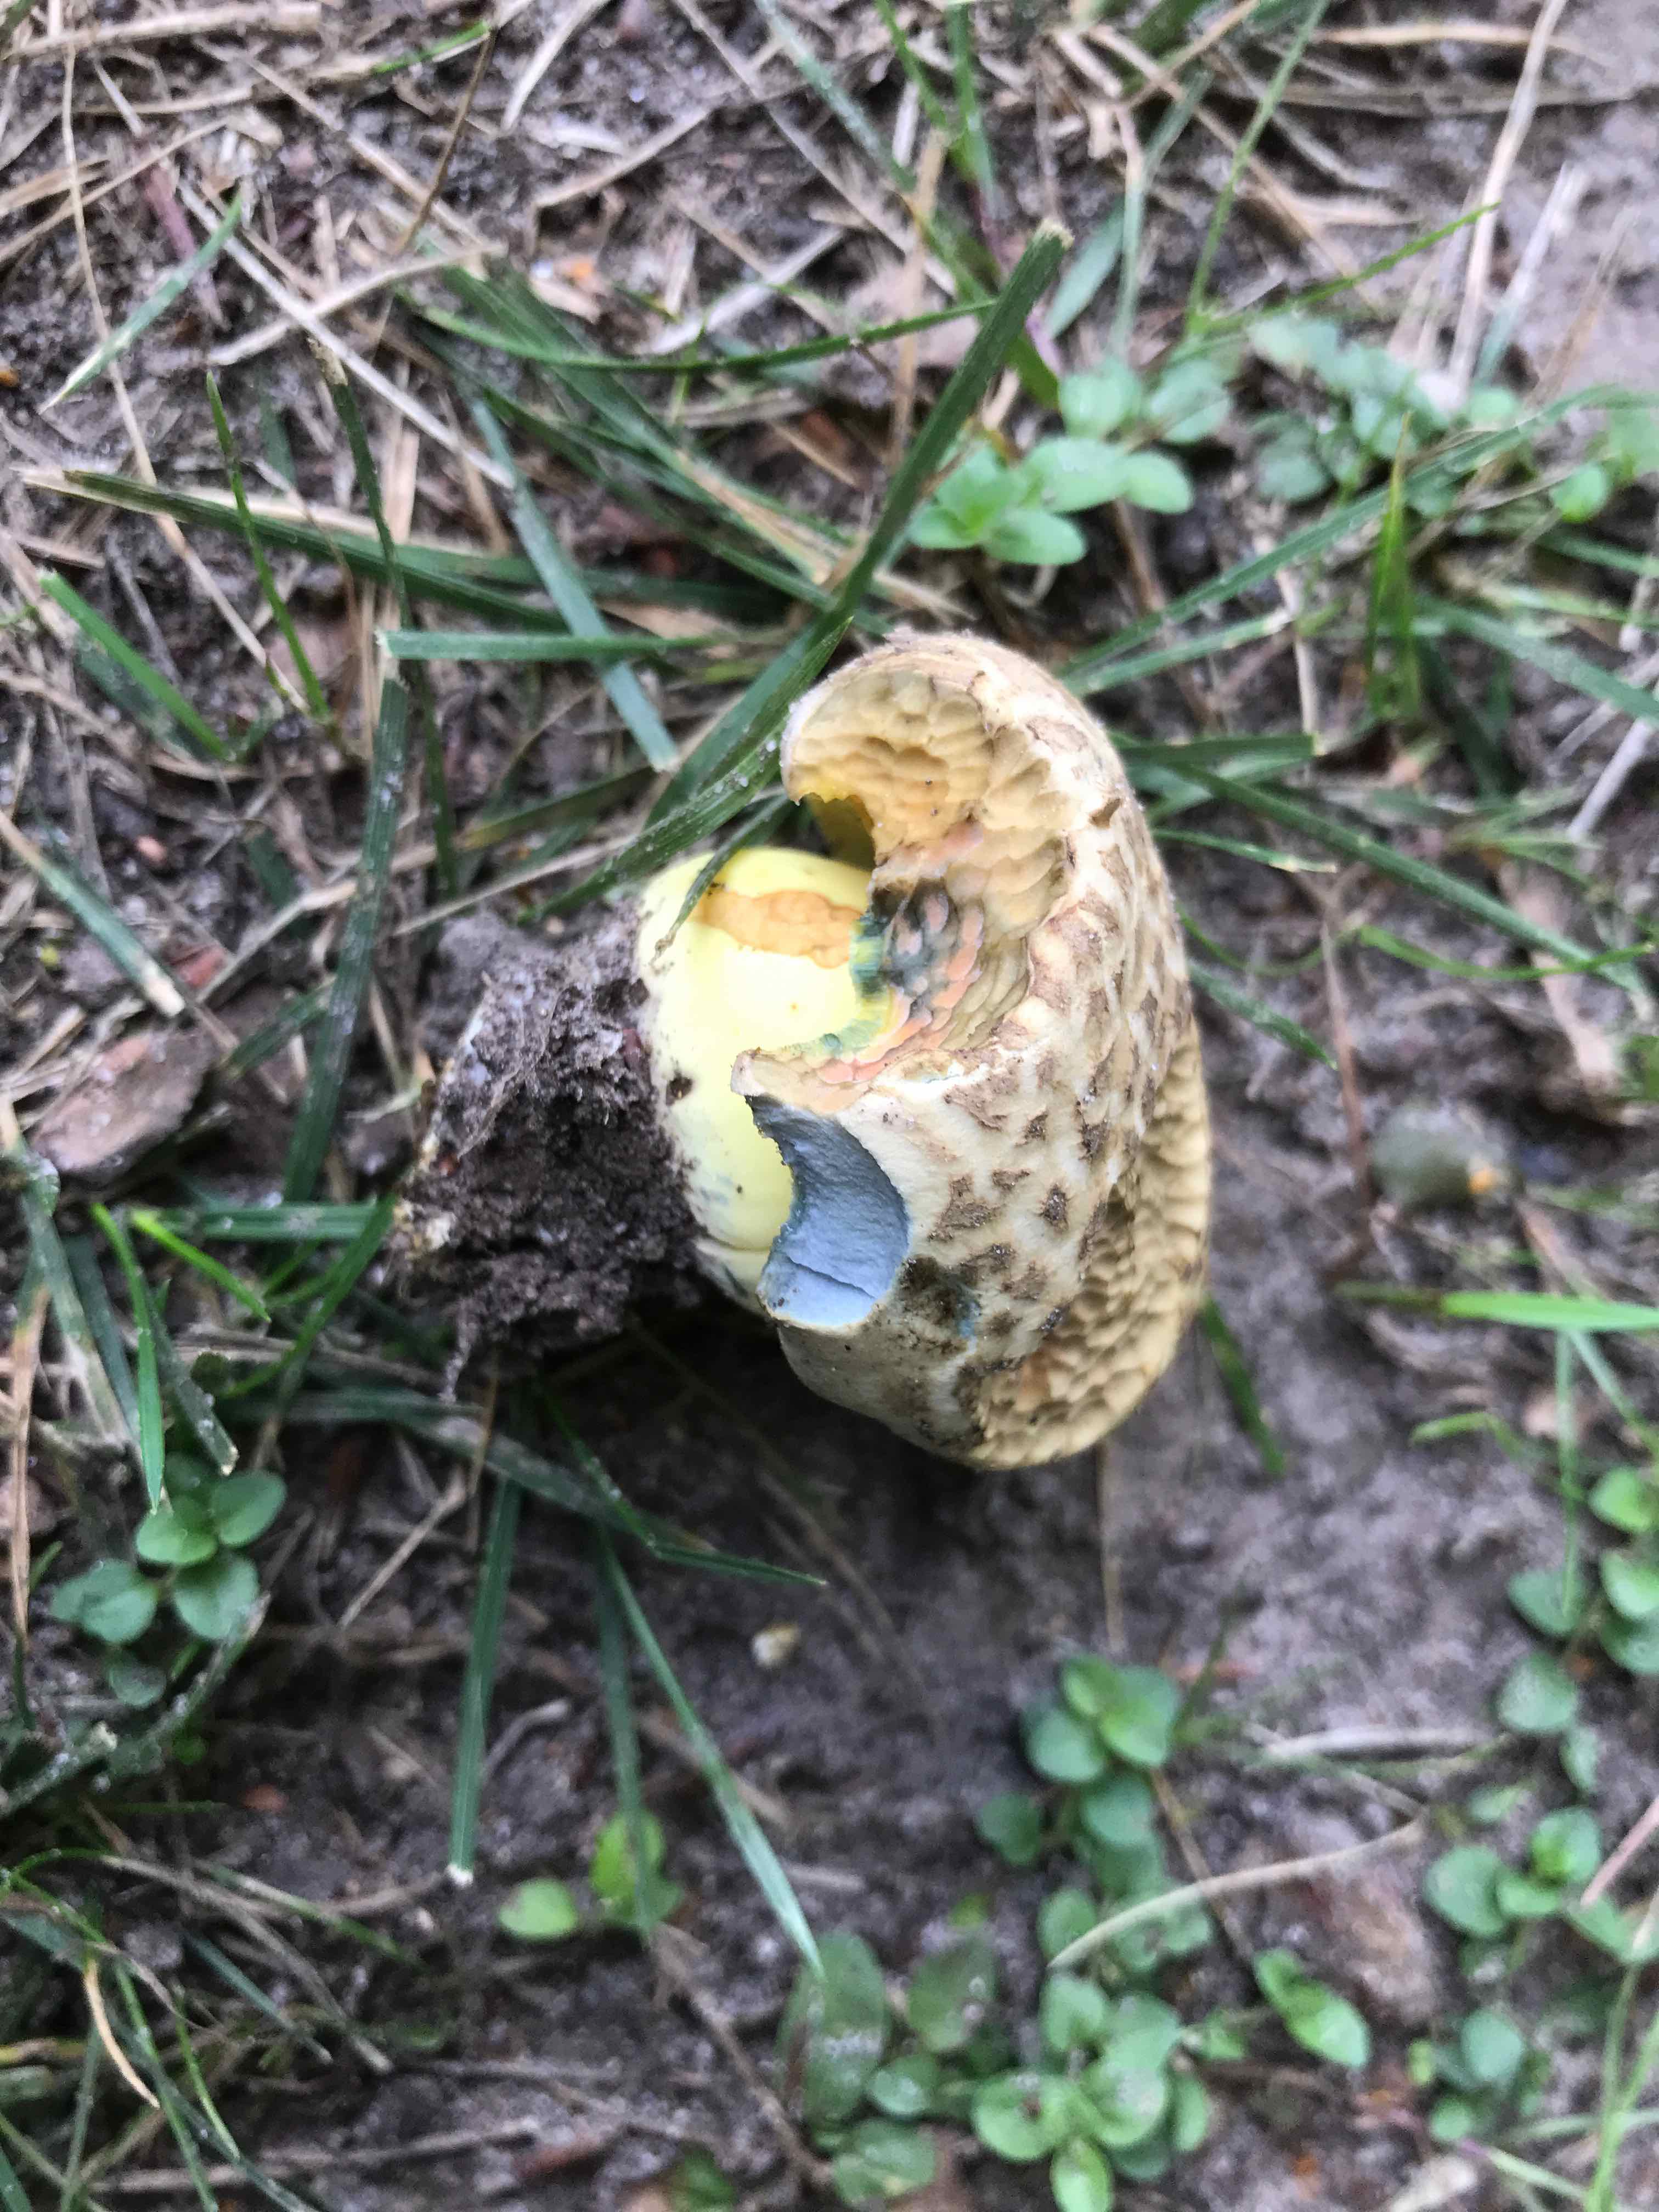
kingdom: Fungi
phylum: Basidiomycota
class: Agaricomycetes
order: Boletales
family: Boletaceae
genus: Caloboletus
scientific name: Caloboletus radicans
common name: rod-rørhat
